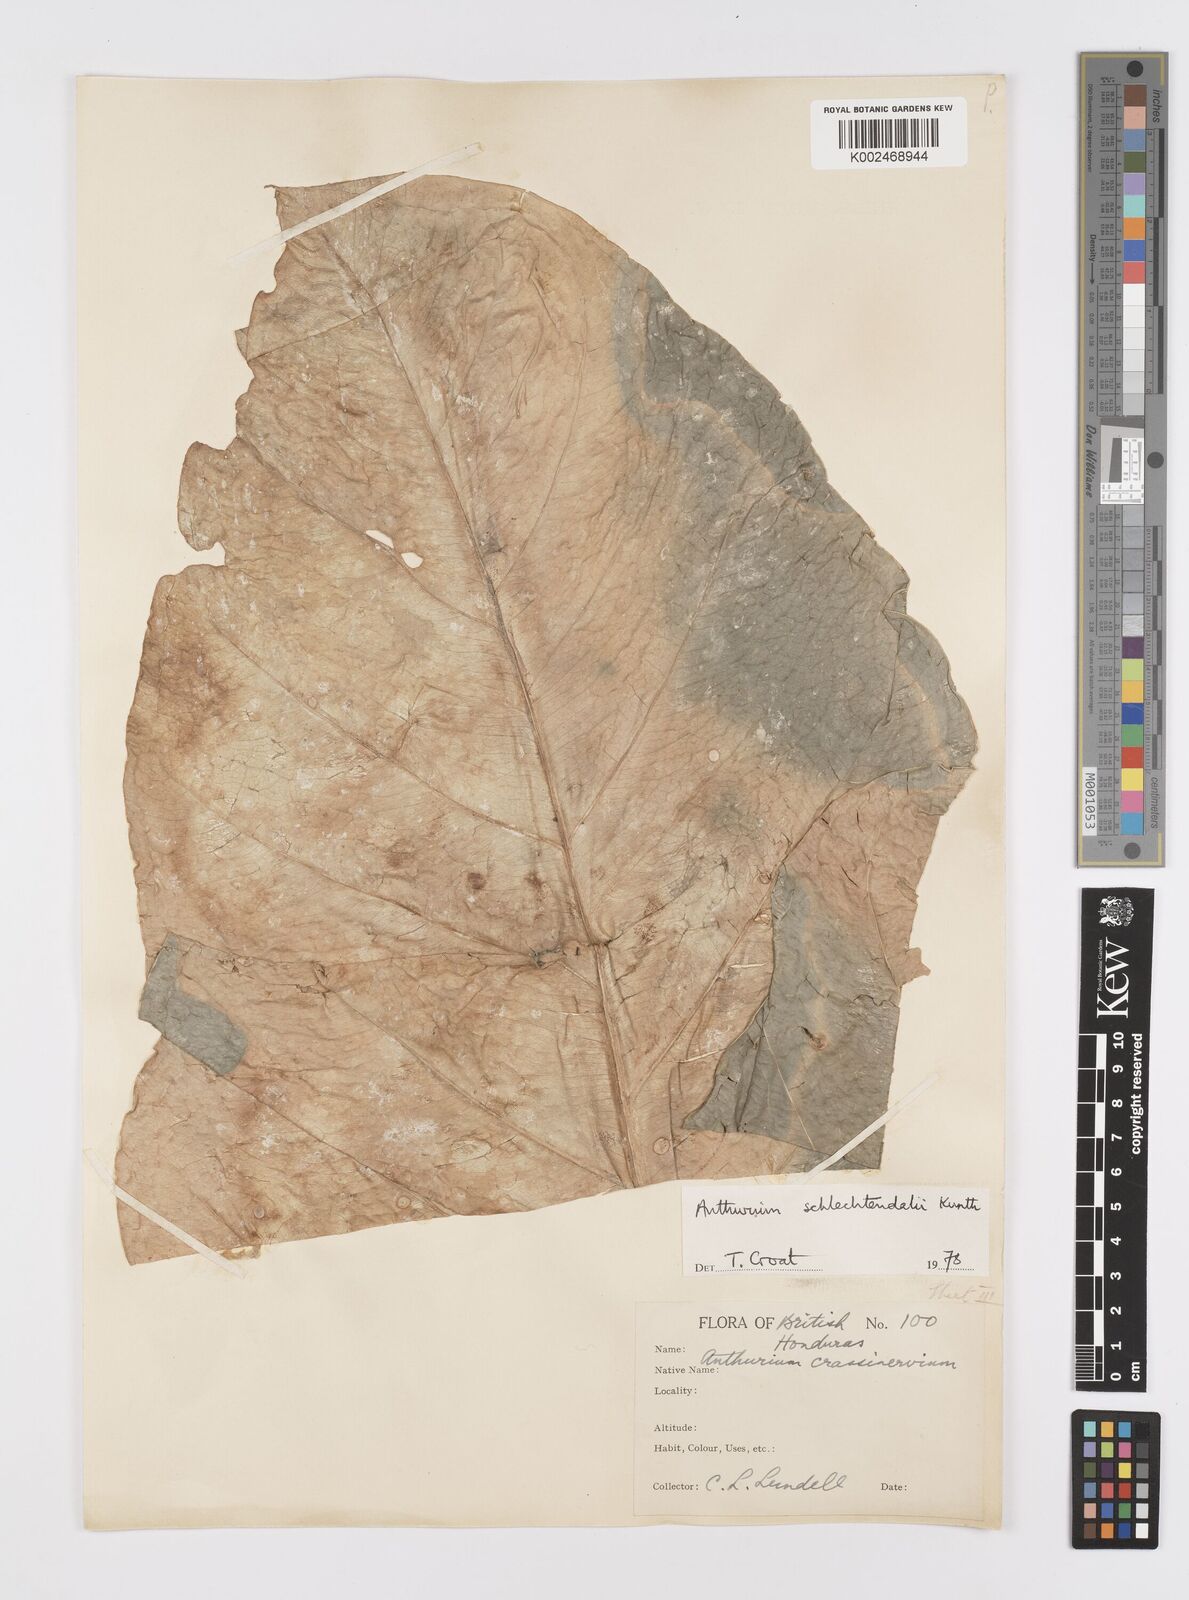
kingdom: Plantae
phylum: Tracheophyta
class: Liliopsida
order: Alismatales
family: Araceae
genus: Anthurium
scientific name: Anthurium schlechtendalii
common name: Laceleaf
